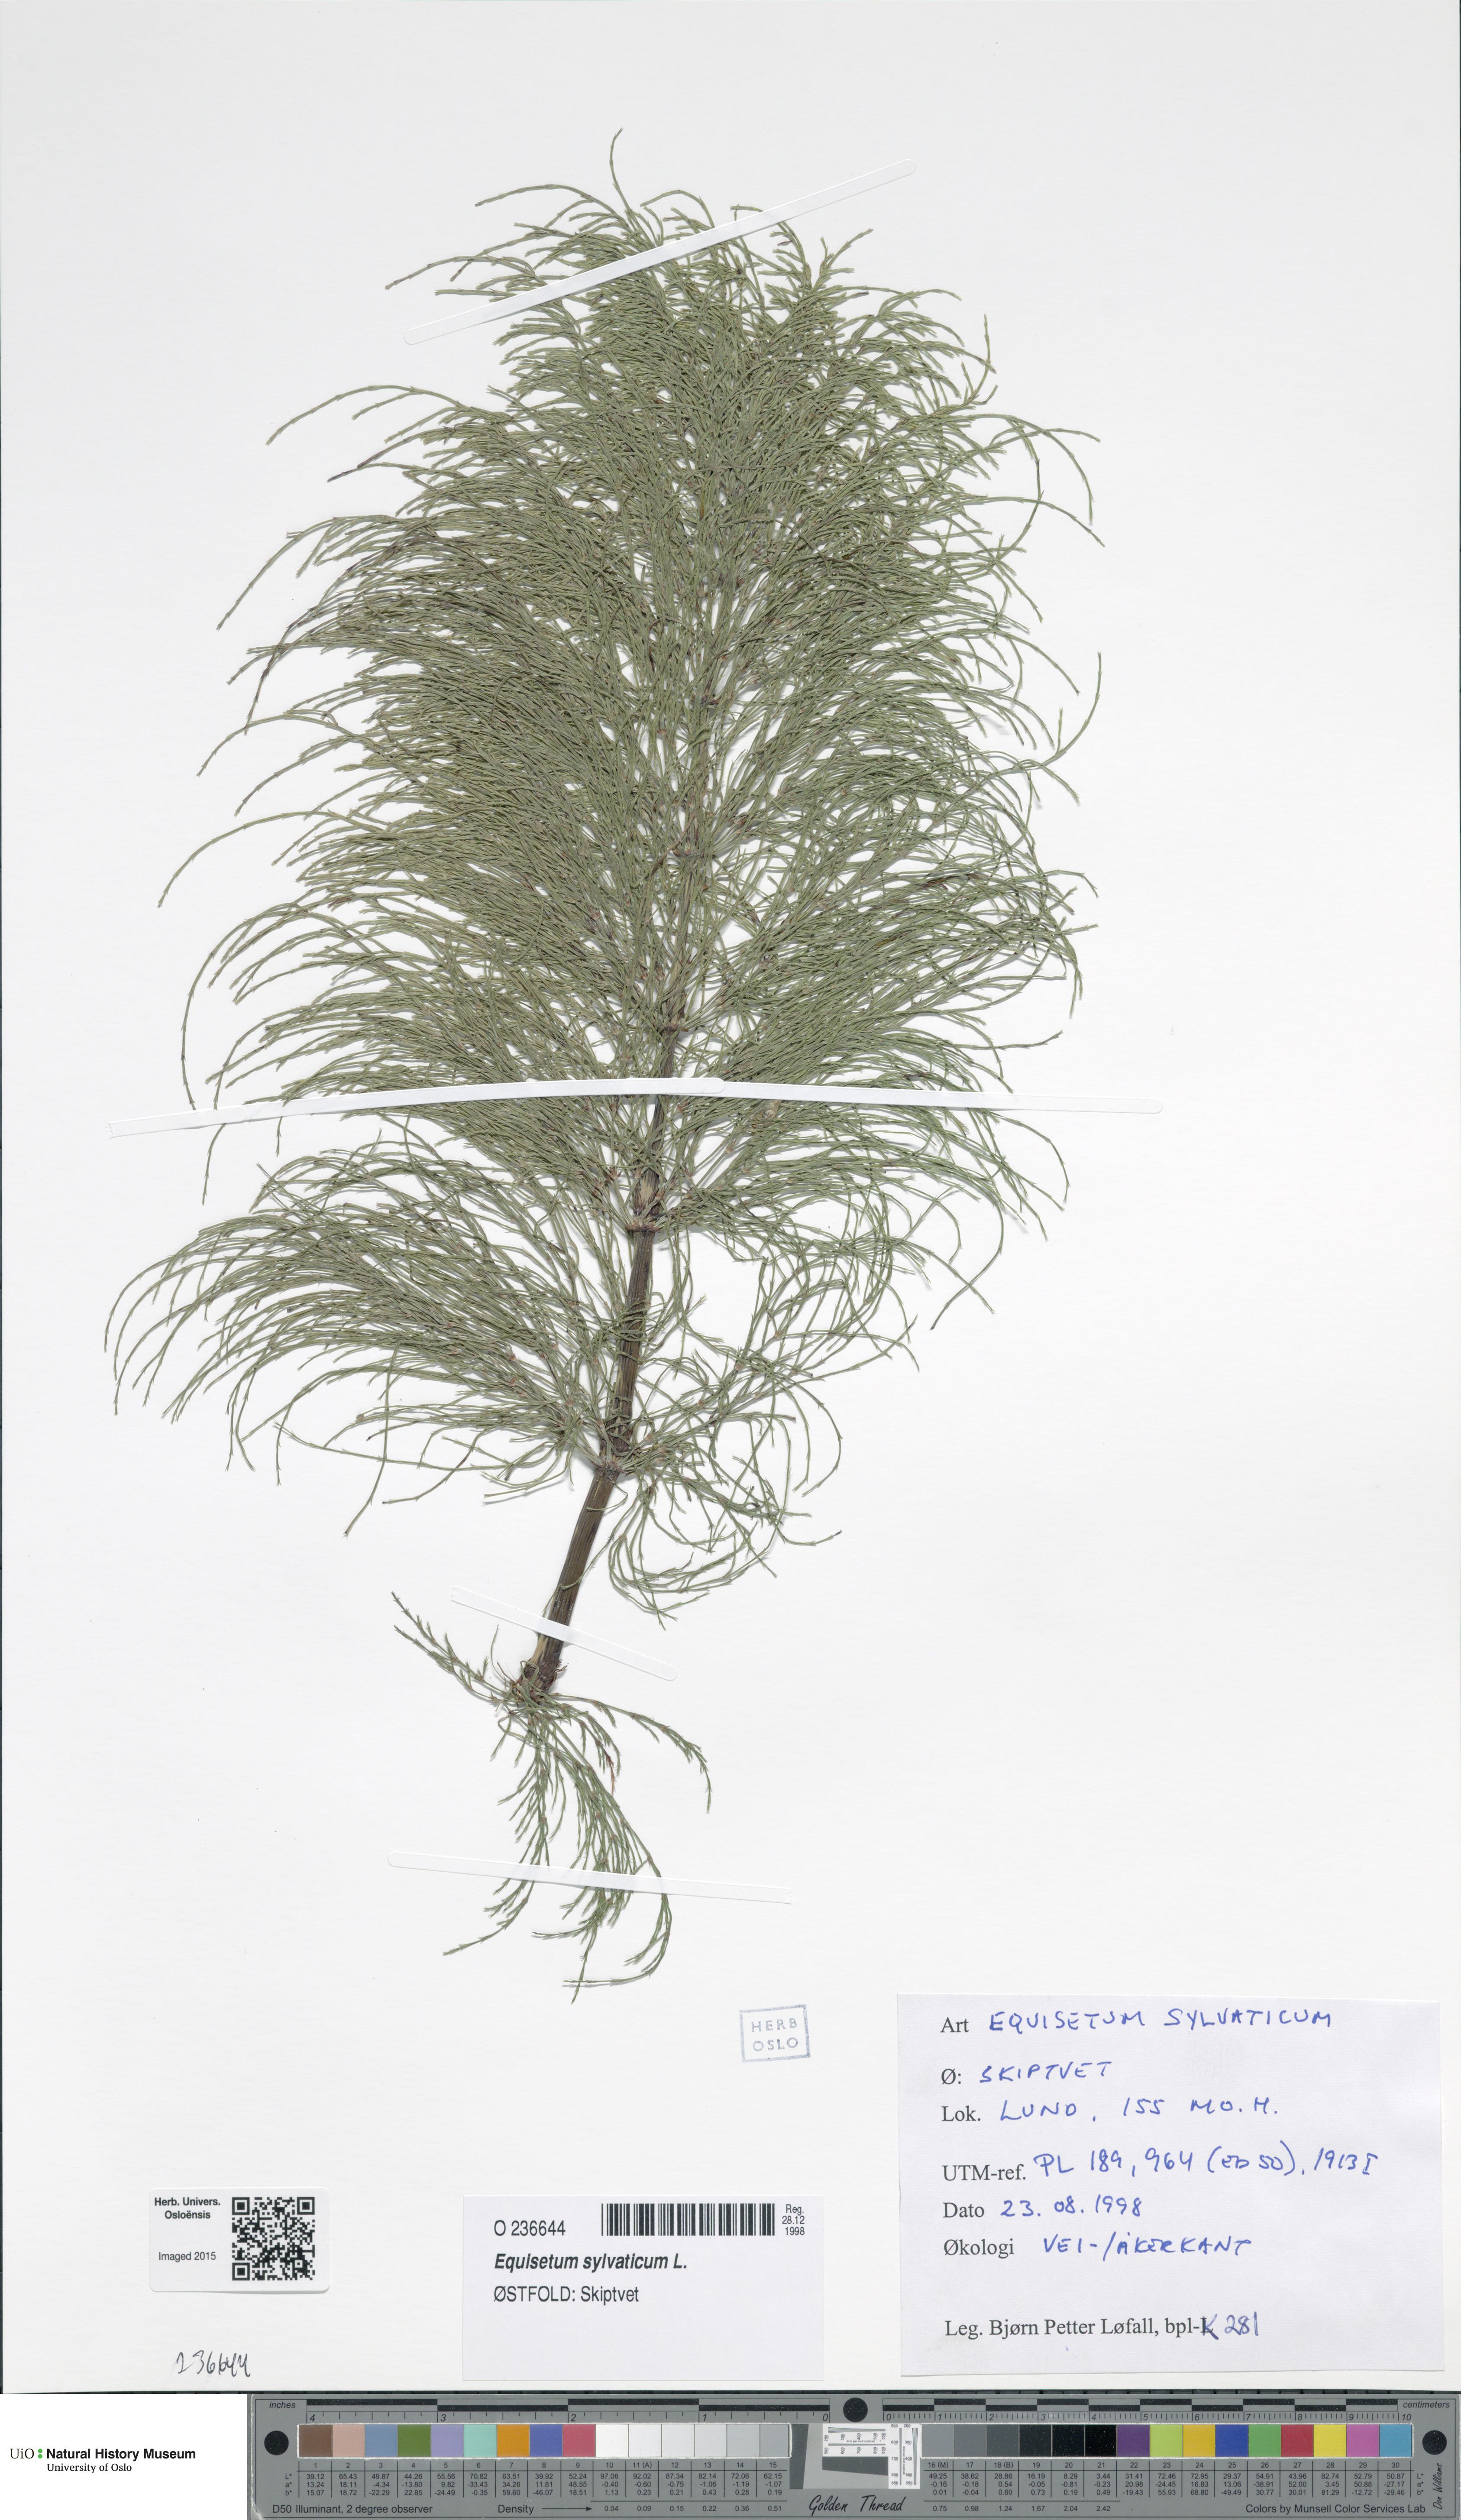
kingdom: Plantae
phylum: Tracheophyta
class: Polypodiopsida
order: Equisetales
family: Equisetaceae
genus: Equisetum
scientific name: Equisetum sylvaticum
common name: Wood horsetail
